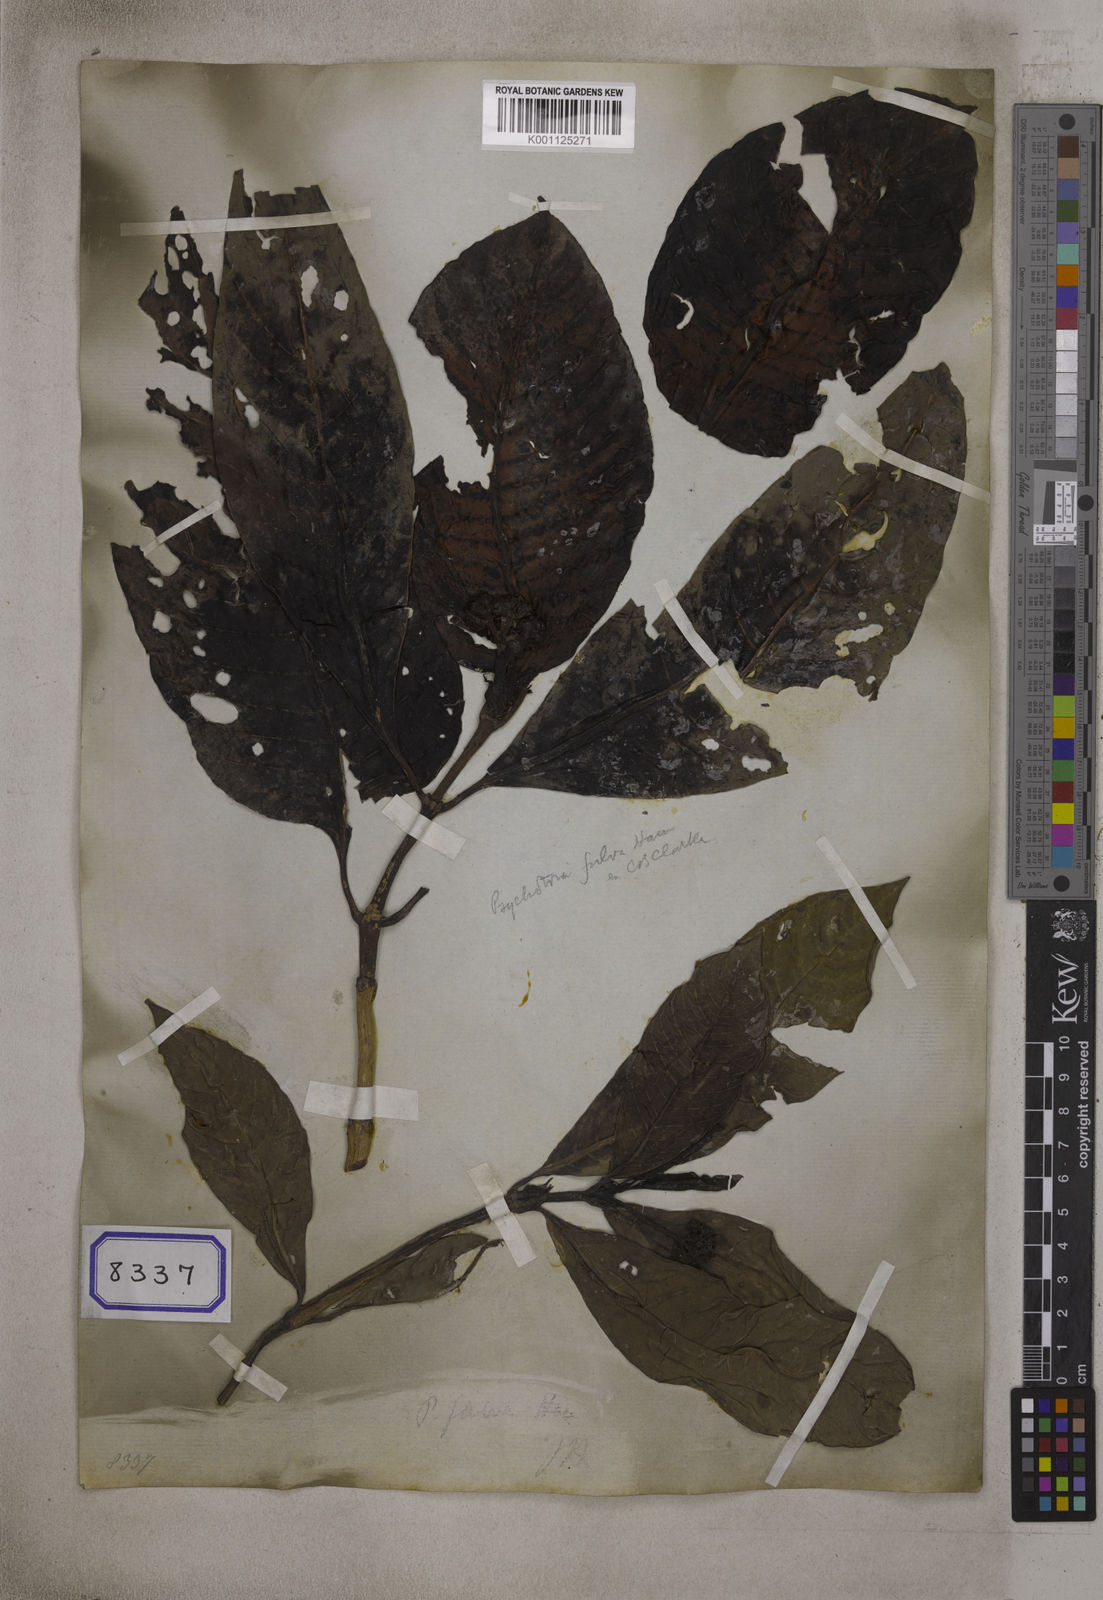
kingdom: Plantae
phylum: Tracheophyta
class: Magnoliopsida
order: Gentianales
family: Rubiaceae
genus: Psychotria
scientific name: Psychotria
